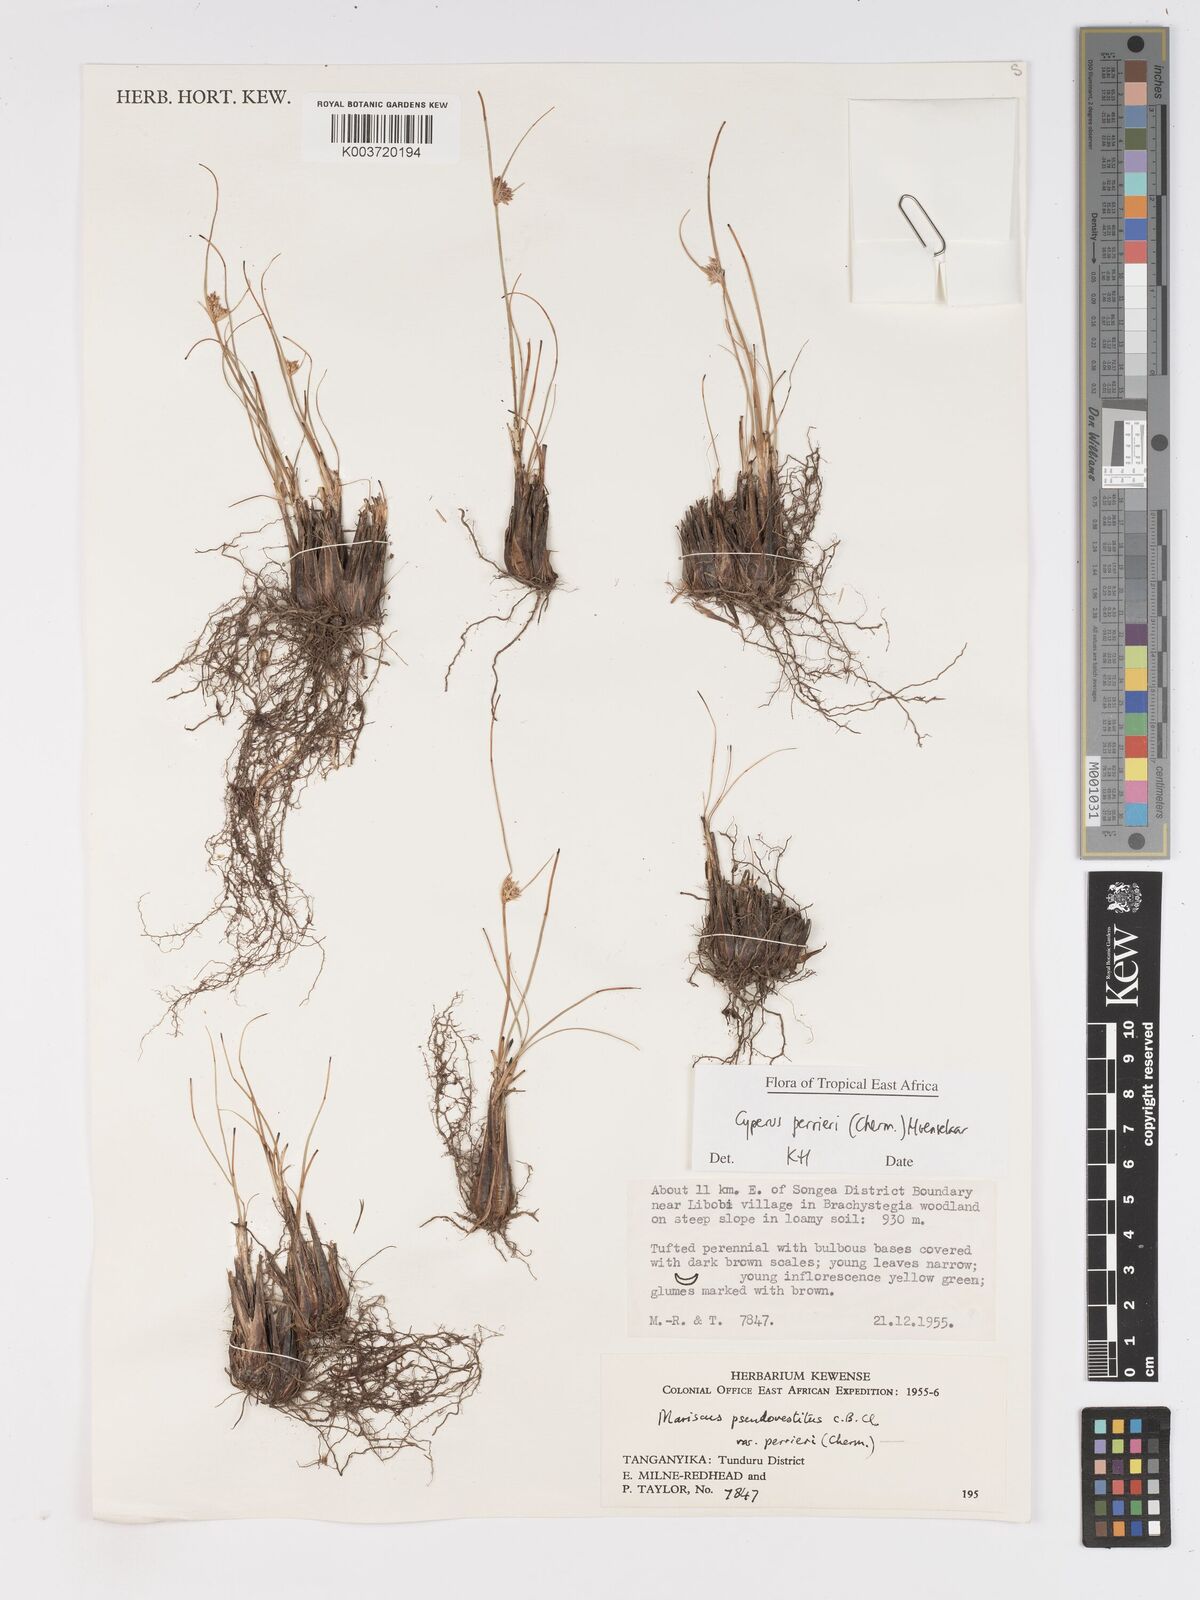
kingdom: Plantae
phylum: Tracheophyta
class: Liliopsida
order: Poales
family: Cyperaceae
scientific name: Cyperaceae
